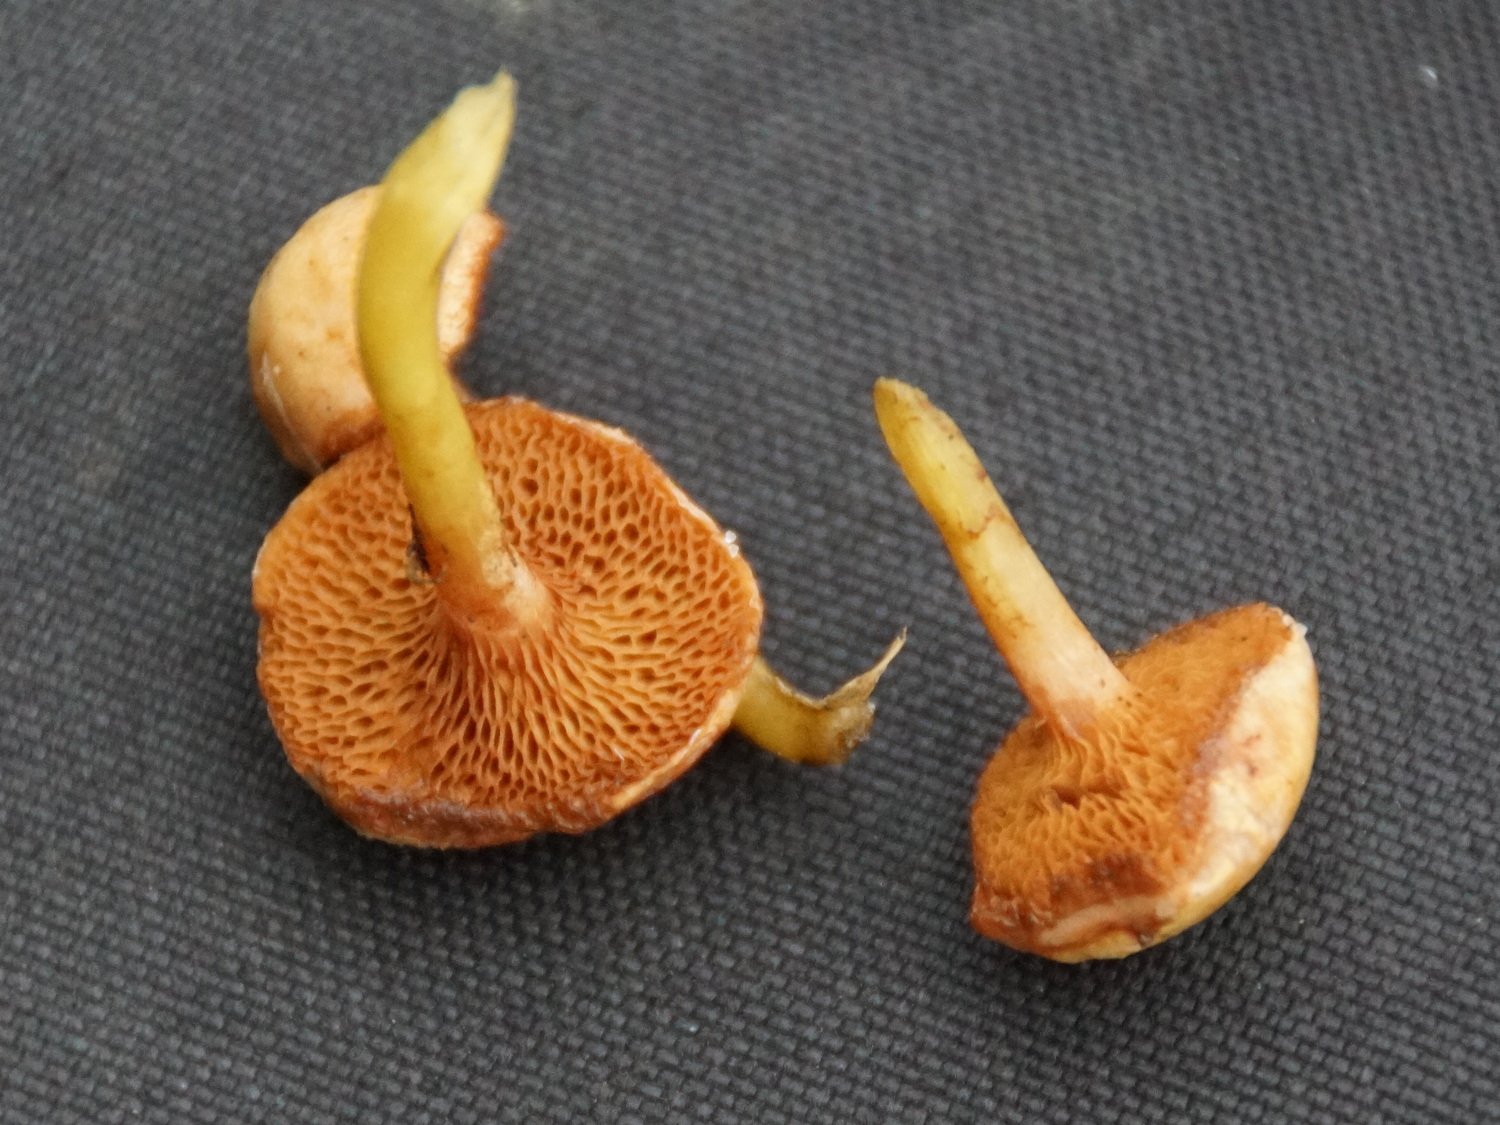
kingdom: Fungi
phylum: Basidiomycota
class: Agaricomycetes
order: Boletales
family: Suillaceae
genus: Suillus
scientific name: Suillus bovinus
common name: grovporet slimrørhat
